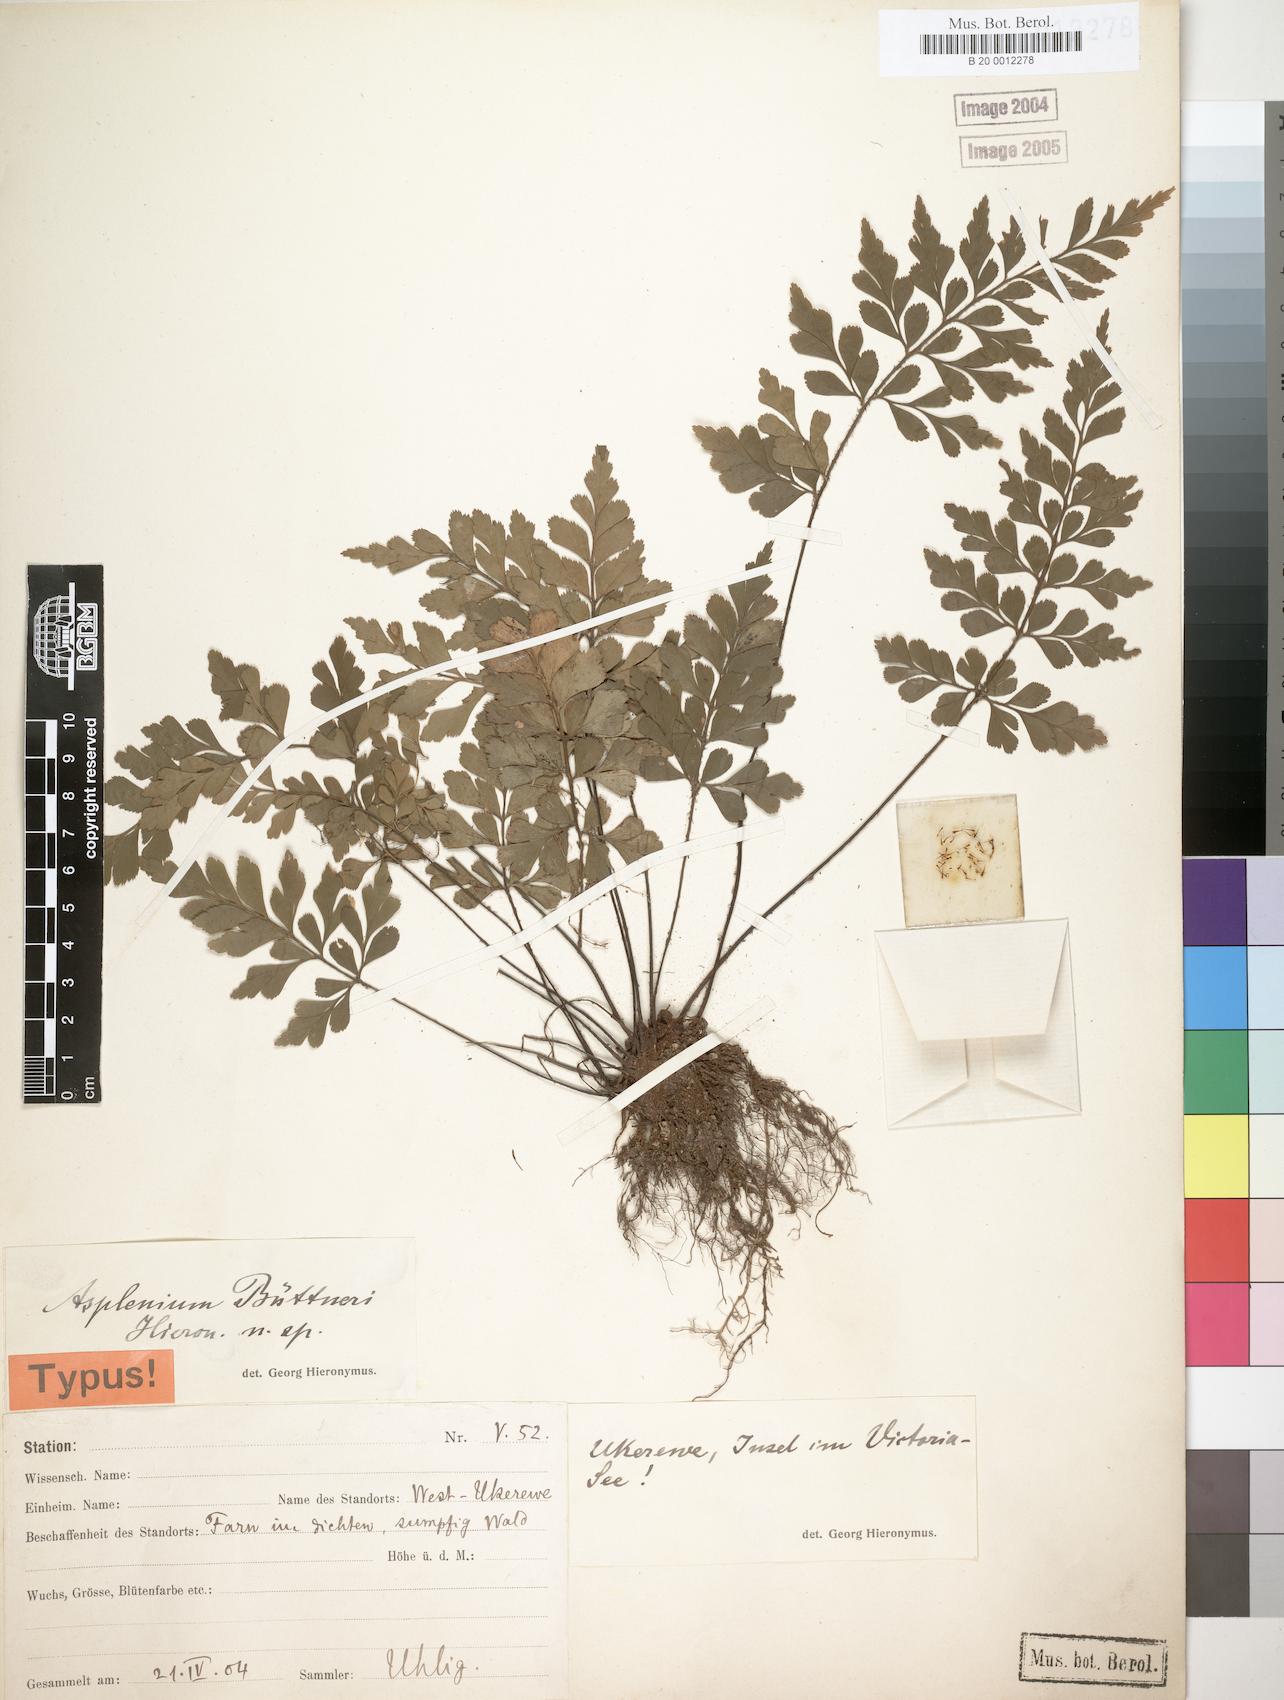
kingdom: Plantae
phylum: Tracheophyta
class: Polypodiopsida
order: Polypodiales
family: Aspleniaceae
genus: Asplenium
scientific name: Asplenium buettneri
